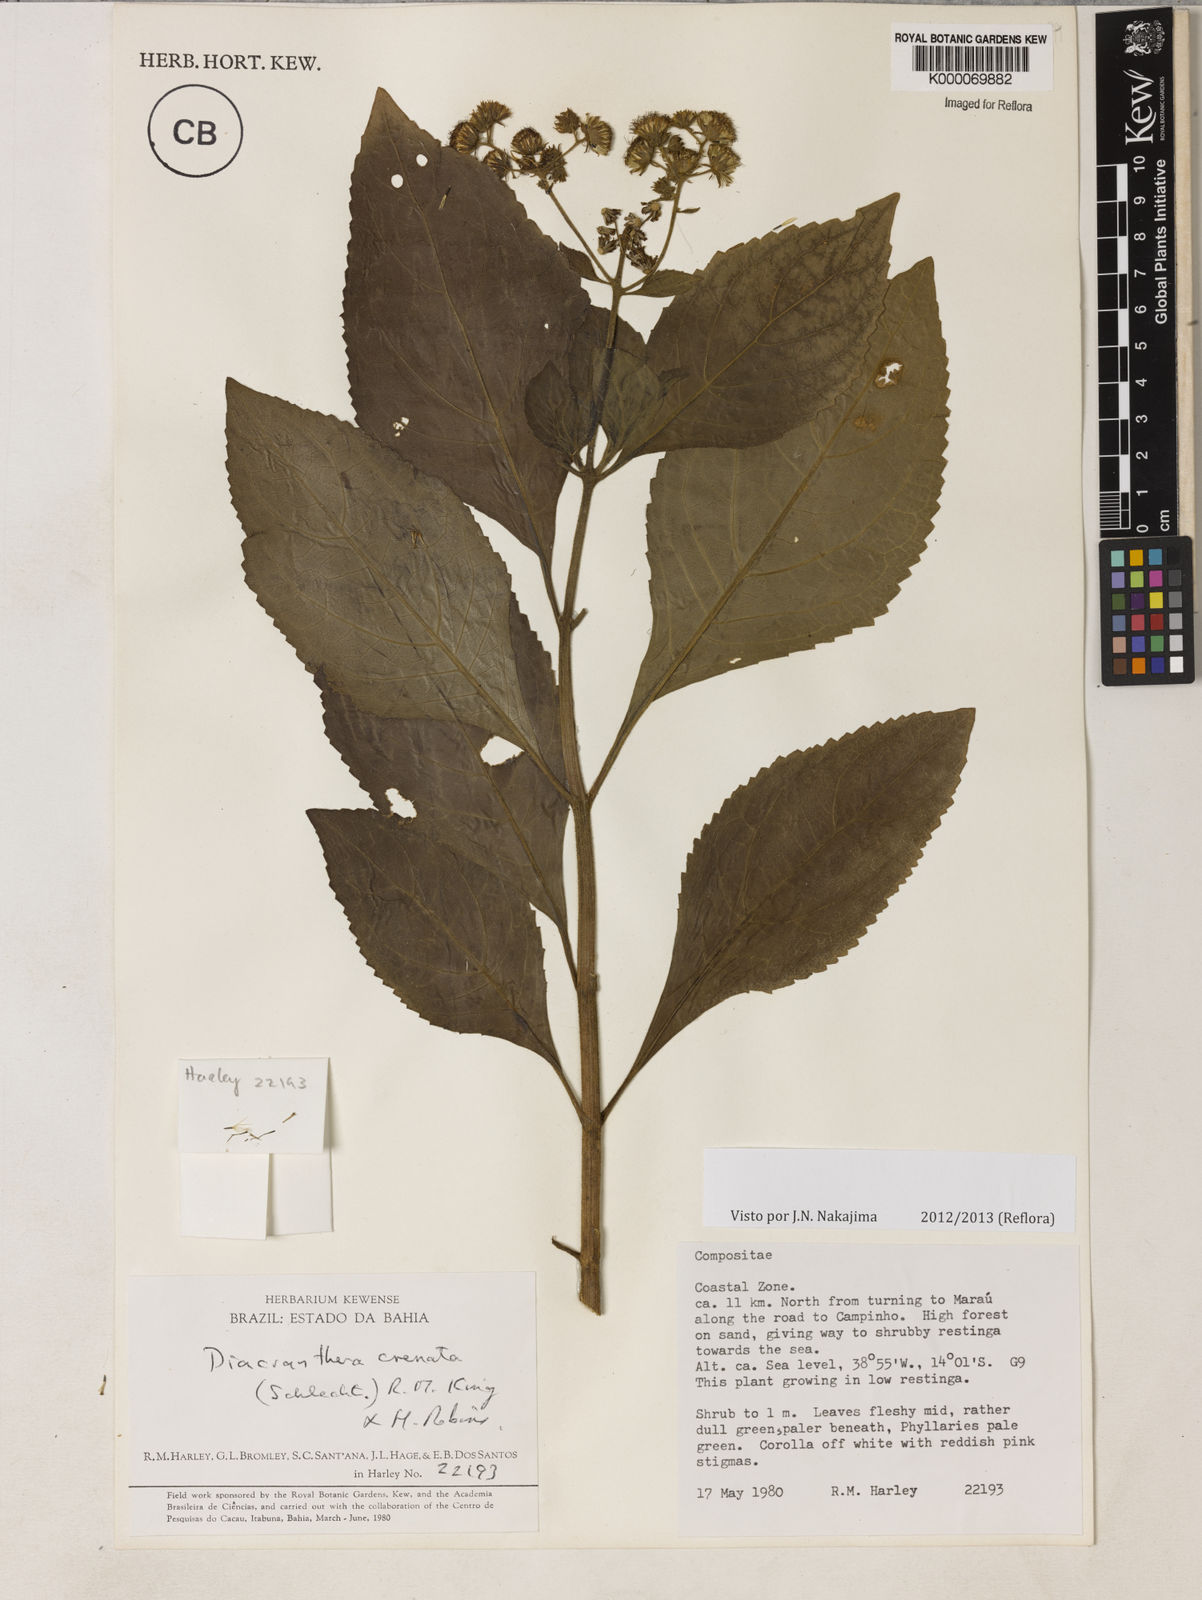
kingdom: Plantae
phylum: Tracheophyta
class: Magnoliopsida
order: Asterales
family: Asteraceae
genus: Diacranthera
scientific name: Diacranthera crenata
